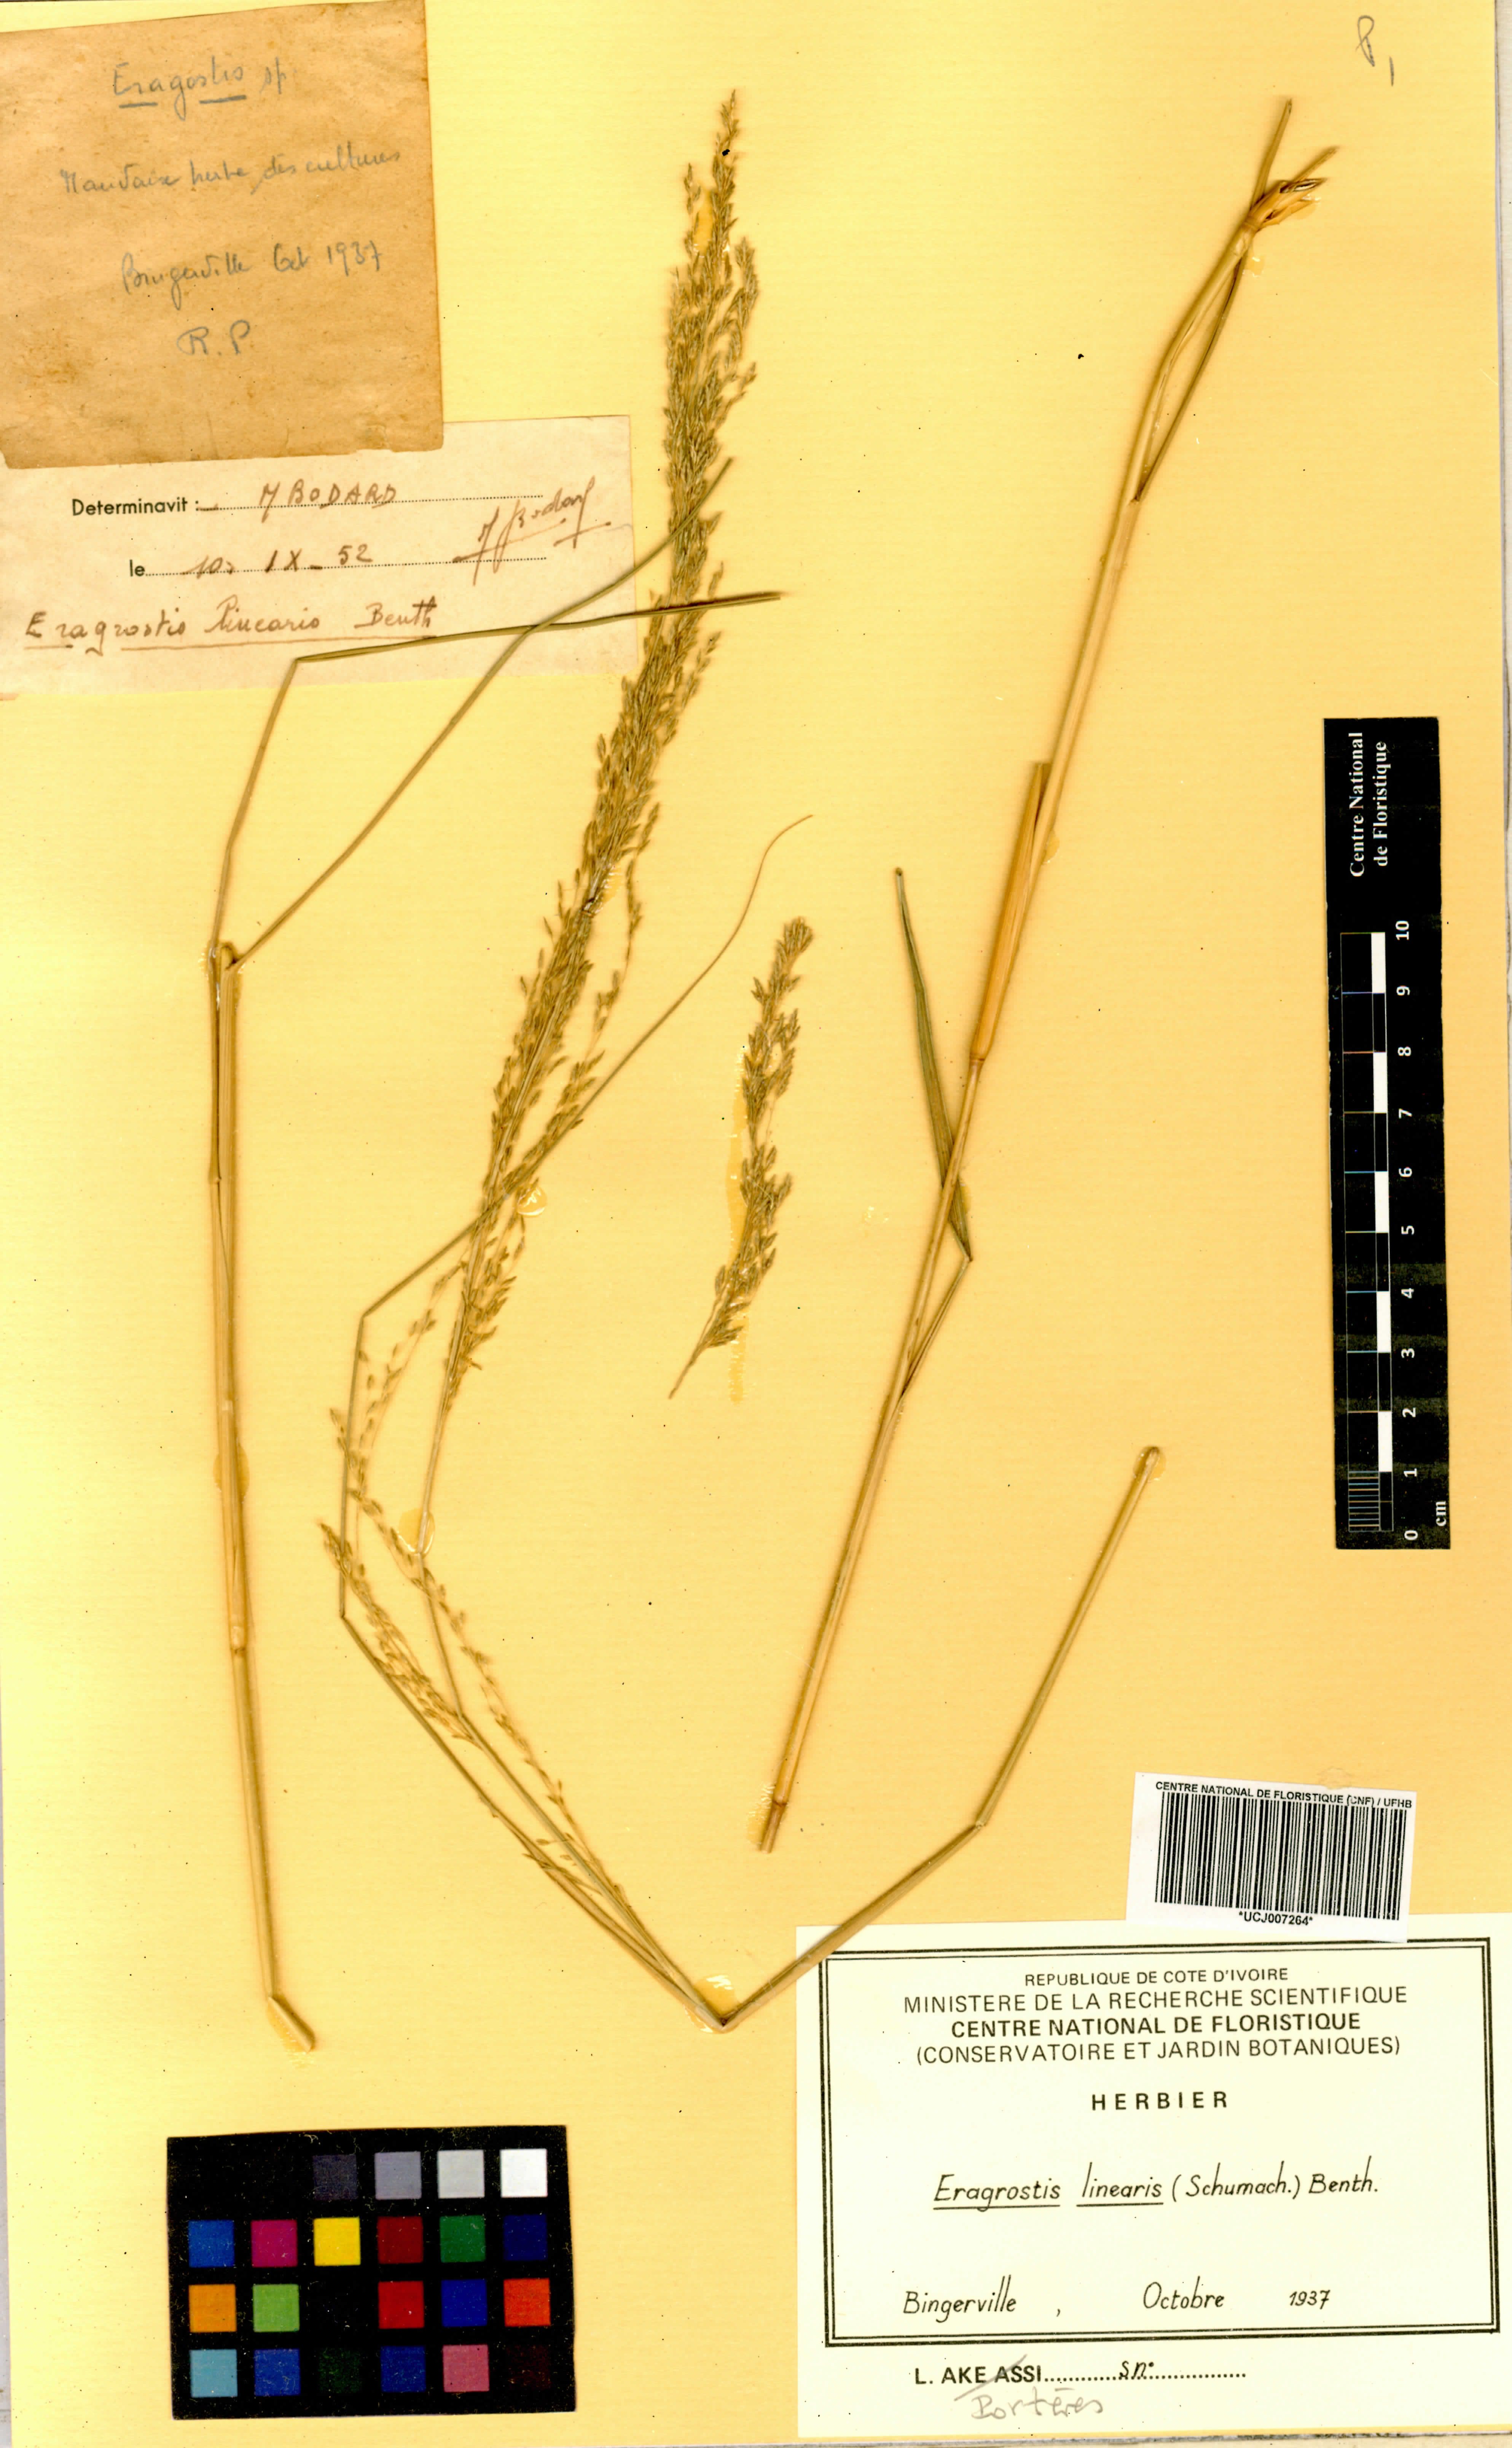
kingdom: Plantae
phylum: Tracheophyta
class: Liliopsida
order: Poales
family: Poaceae
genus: Eragrostis
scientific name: Eragrostis prolifera
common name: Dominican lovegrass
